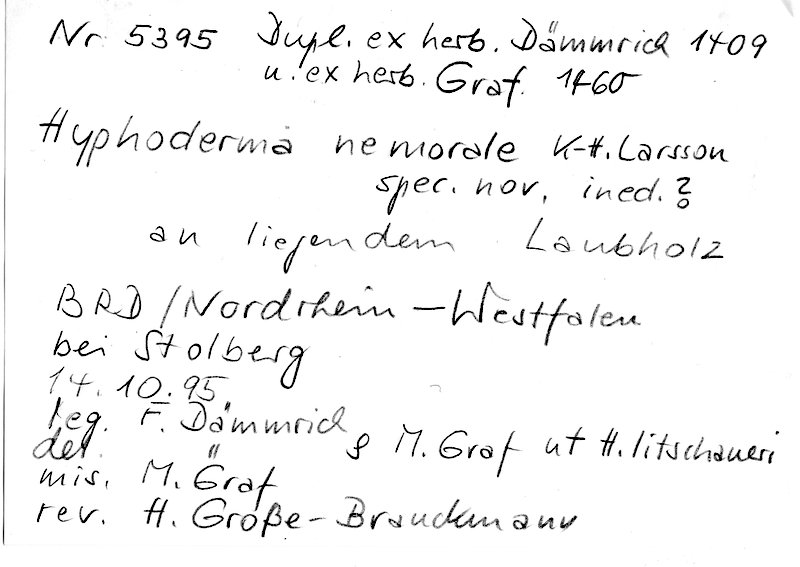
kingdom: Fungi
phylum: Basidiomycota
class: Agaricomycetes
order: Polyporales
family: Hyphodermataceae
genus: Hyphoderma
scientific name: Hyphoderma nemorale
